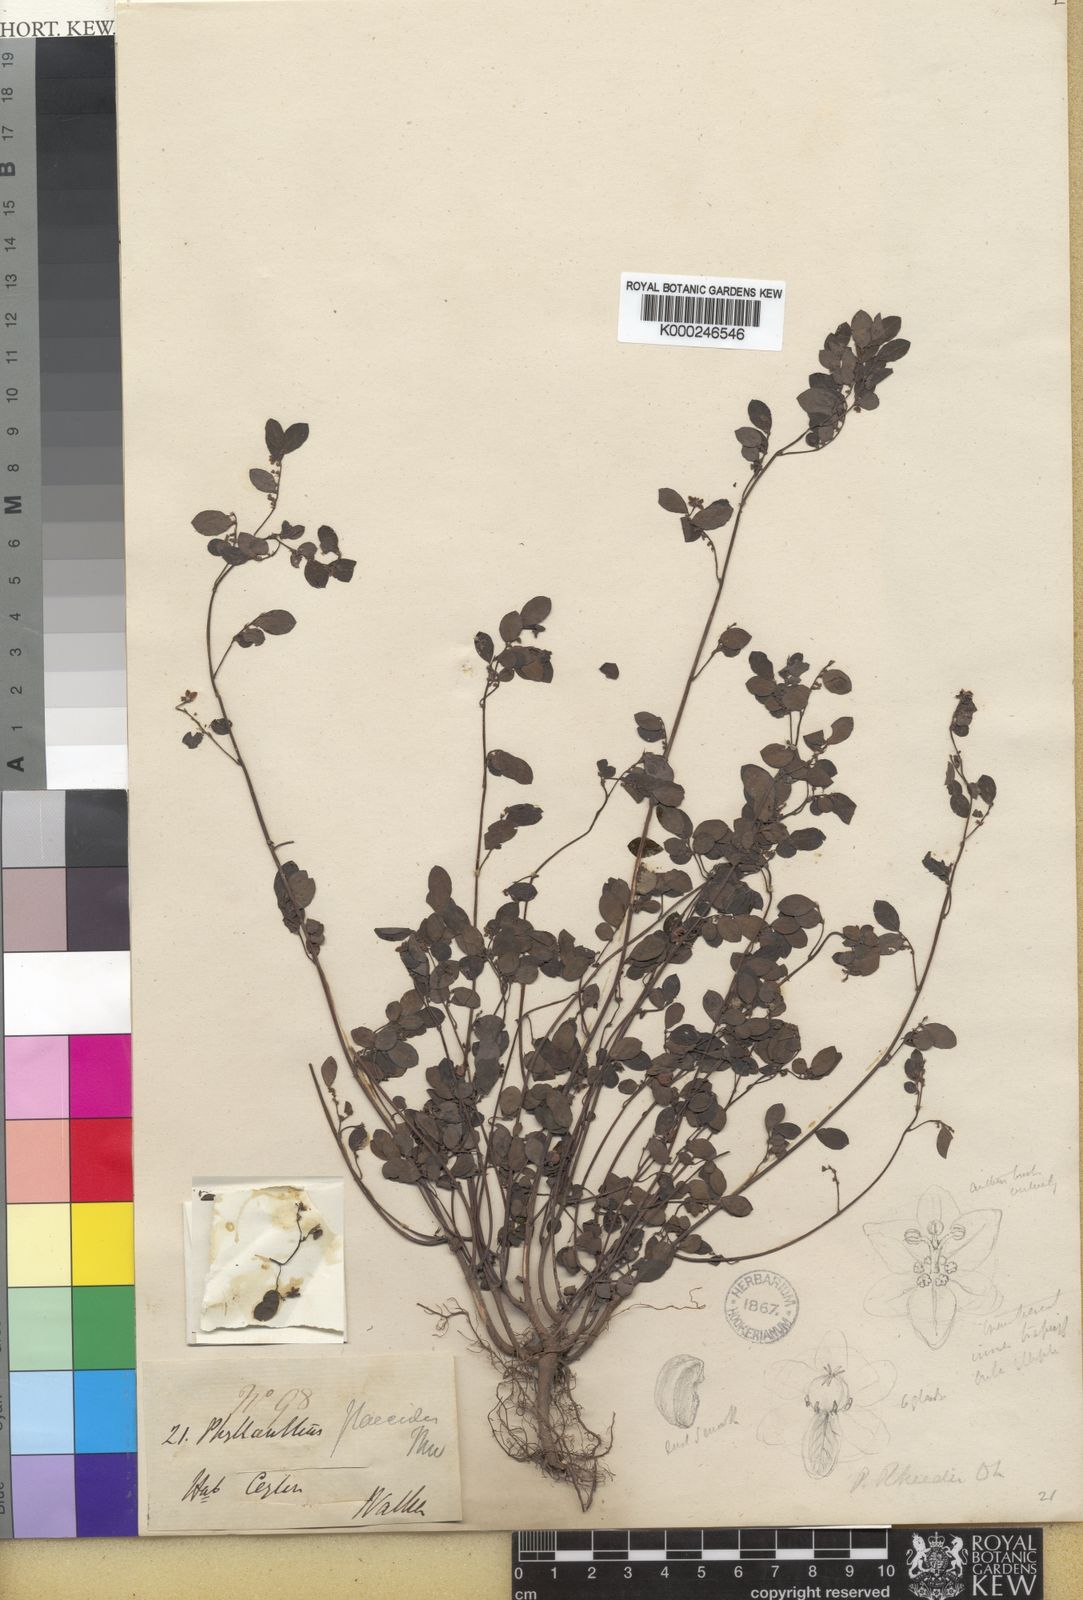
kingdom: Plantae
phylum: Tracheophyta
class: Magnoliopsida
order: Malpighiales
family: Phyllanthaceae
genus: Phyllanthus
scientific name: Phyllanthus rheedei
